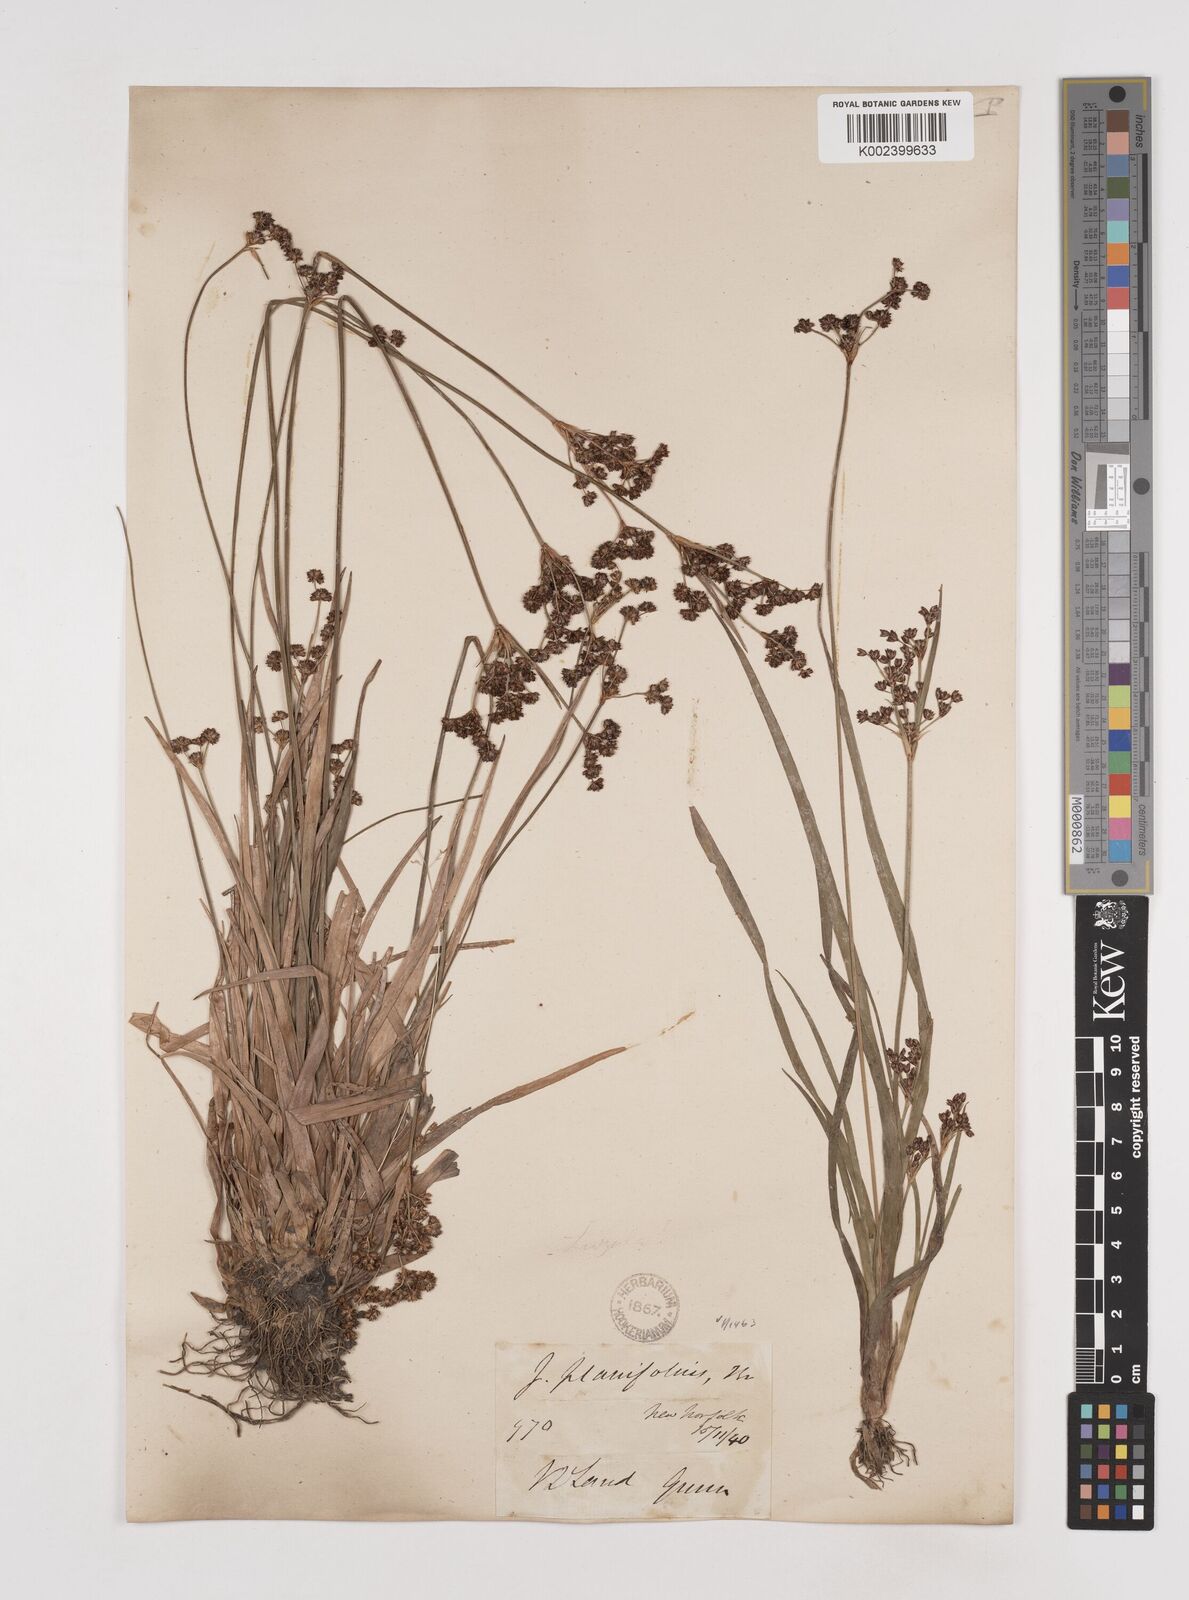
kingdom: Plantae
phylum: Tracheophyta
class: Liliopsida
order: Poales
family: Juncaceae
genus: Juncus
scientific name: Juncus planifolius
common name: Broadleaf rush
